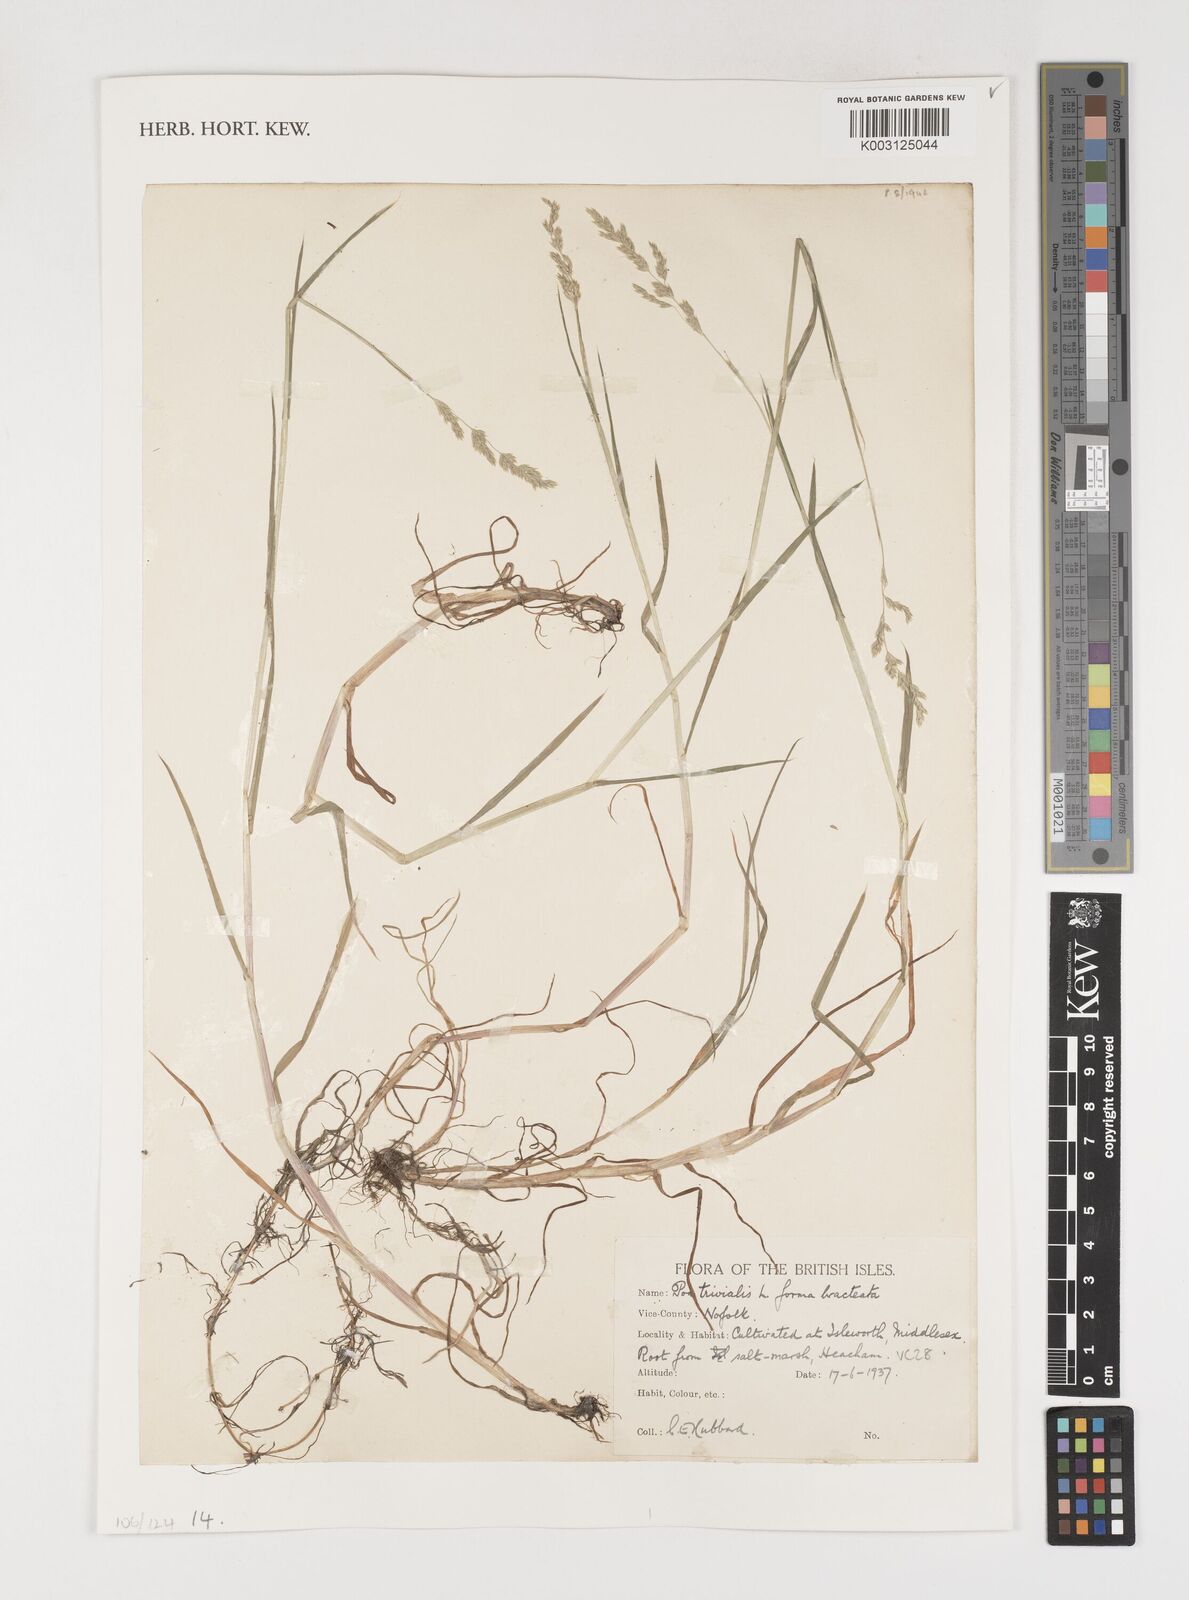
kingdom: Plantae
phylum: Tracheophyta
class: Liliopsida
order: Poales
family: Poaceae
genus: Poa
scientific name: Poa trivialis
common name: Rough bluegrass
